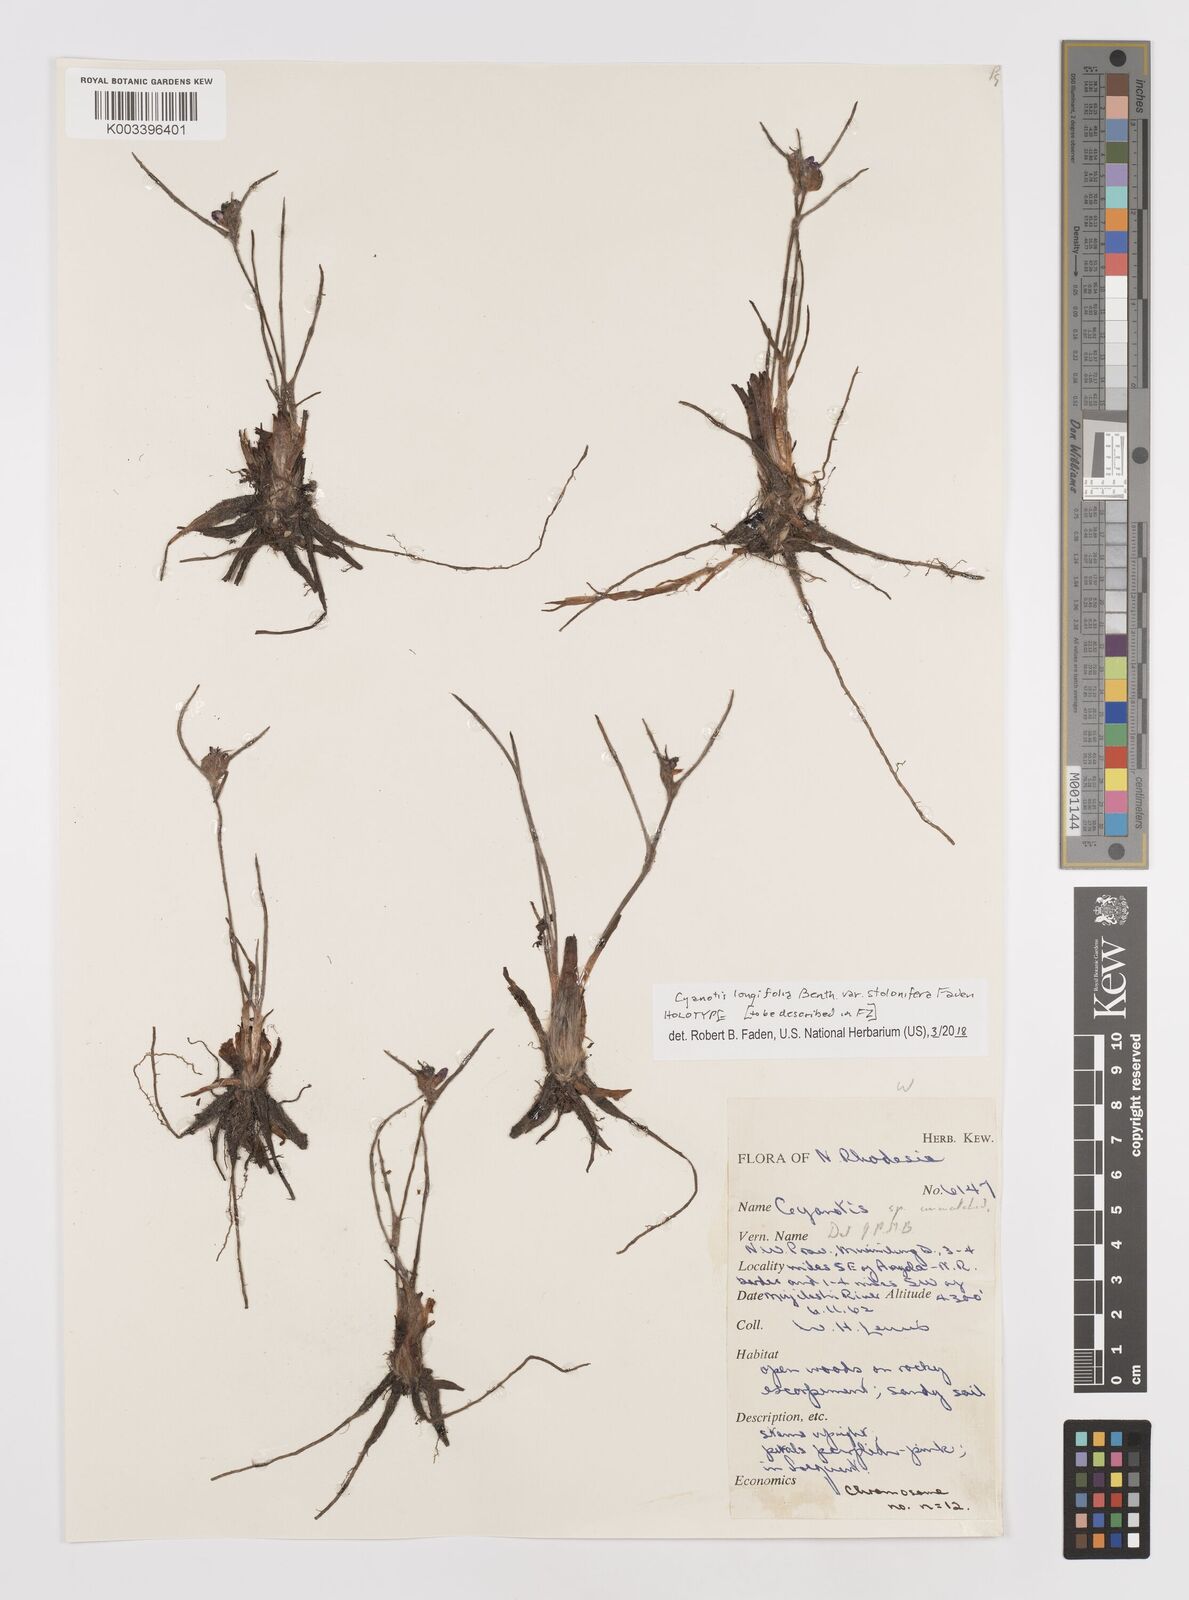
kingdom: Plantae
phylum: Tracheophyta
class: Liliopsida
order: Commelinales
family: Commelinaceae
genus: Cyanotis
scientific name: Cyanotis longifolia
